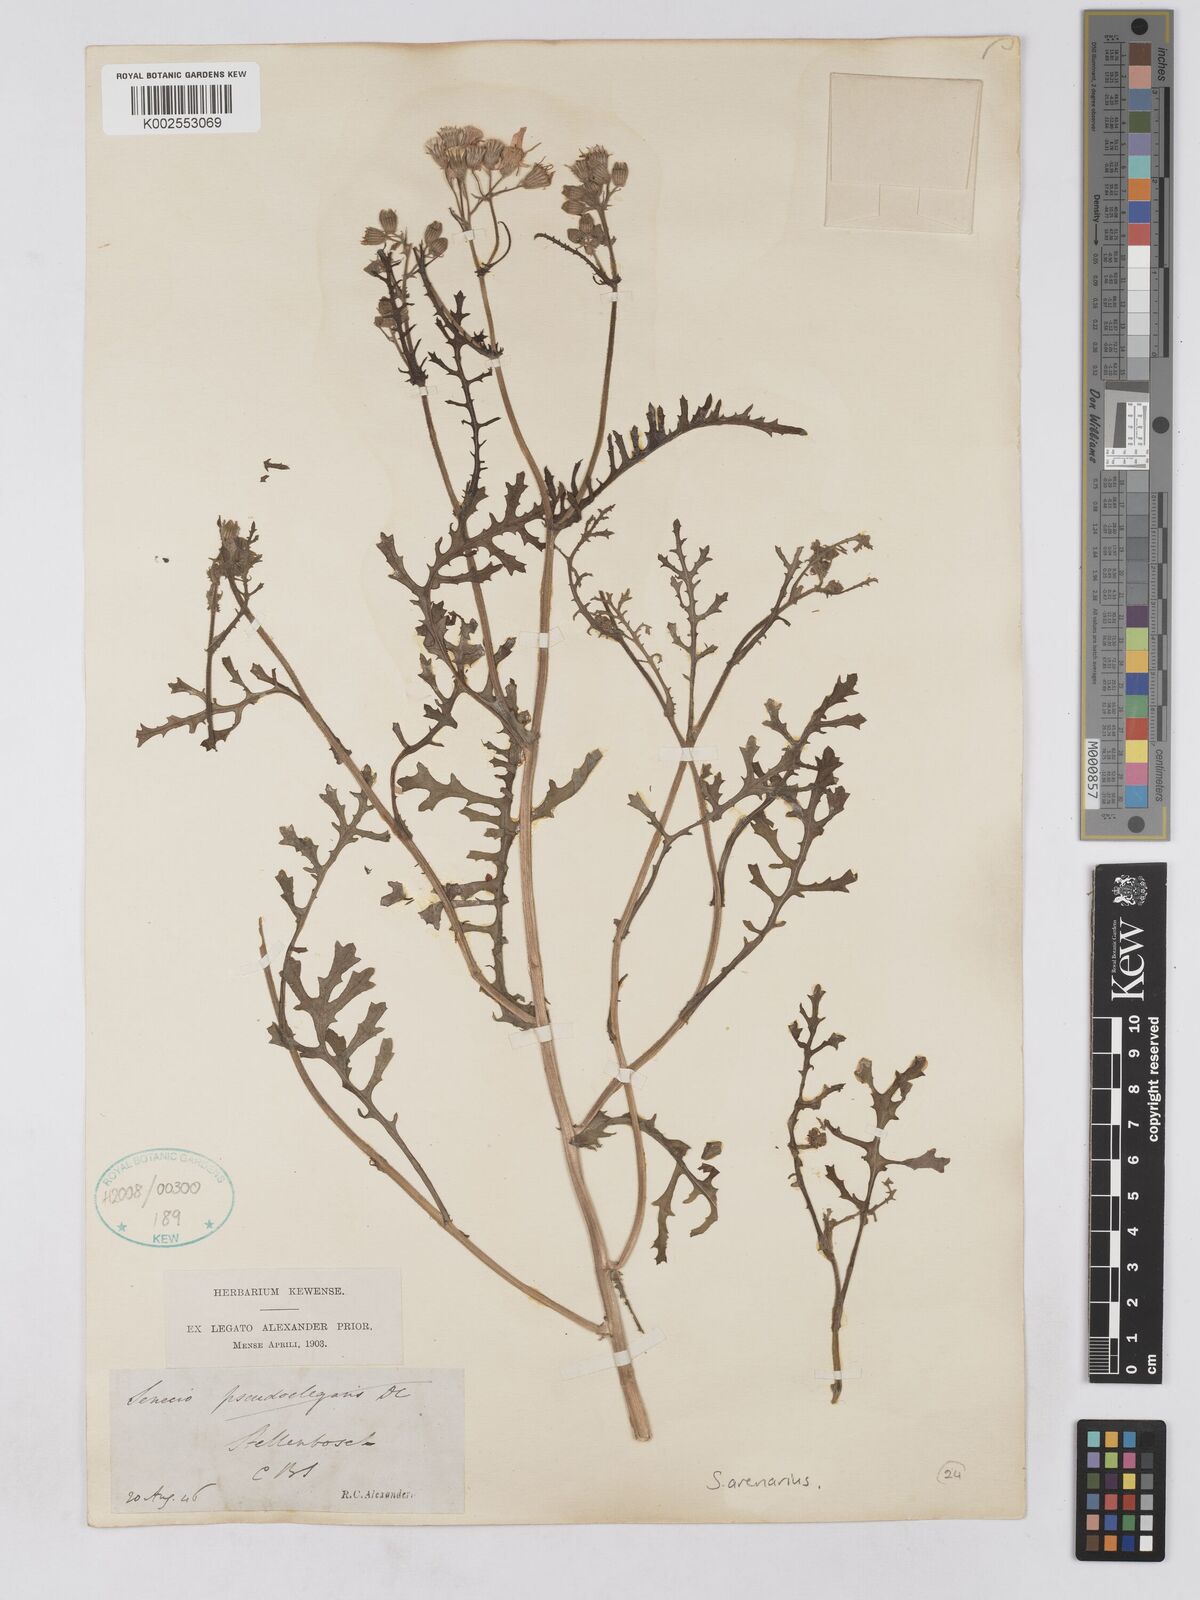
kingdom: Plantae
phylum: Tracheophyta
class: Magnoliopsida
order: Asterales
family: Asteraceae
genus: Senecio
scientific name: Senecio arenarius
